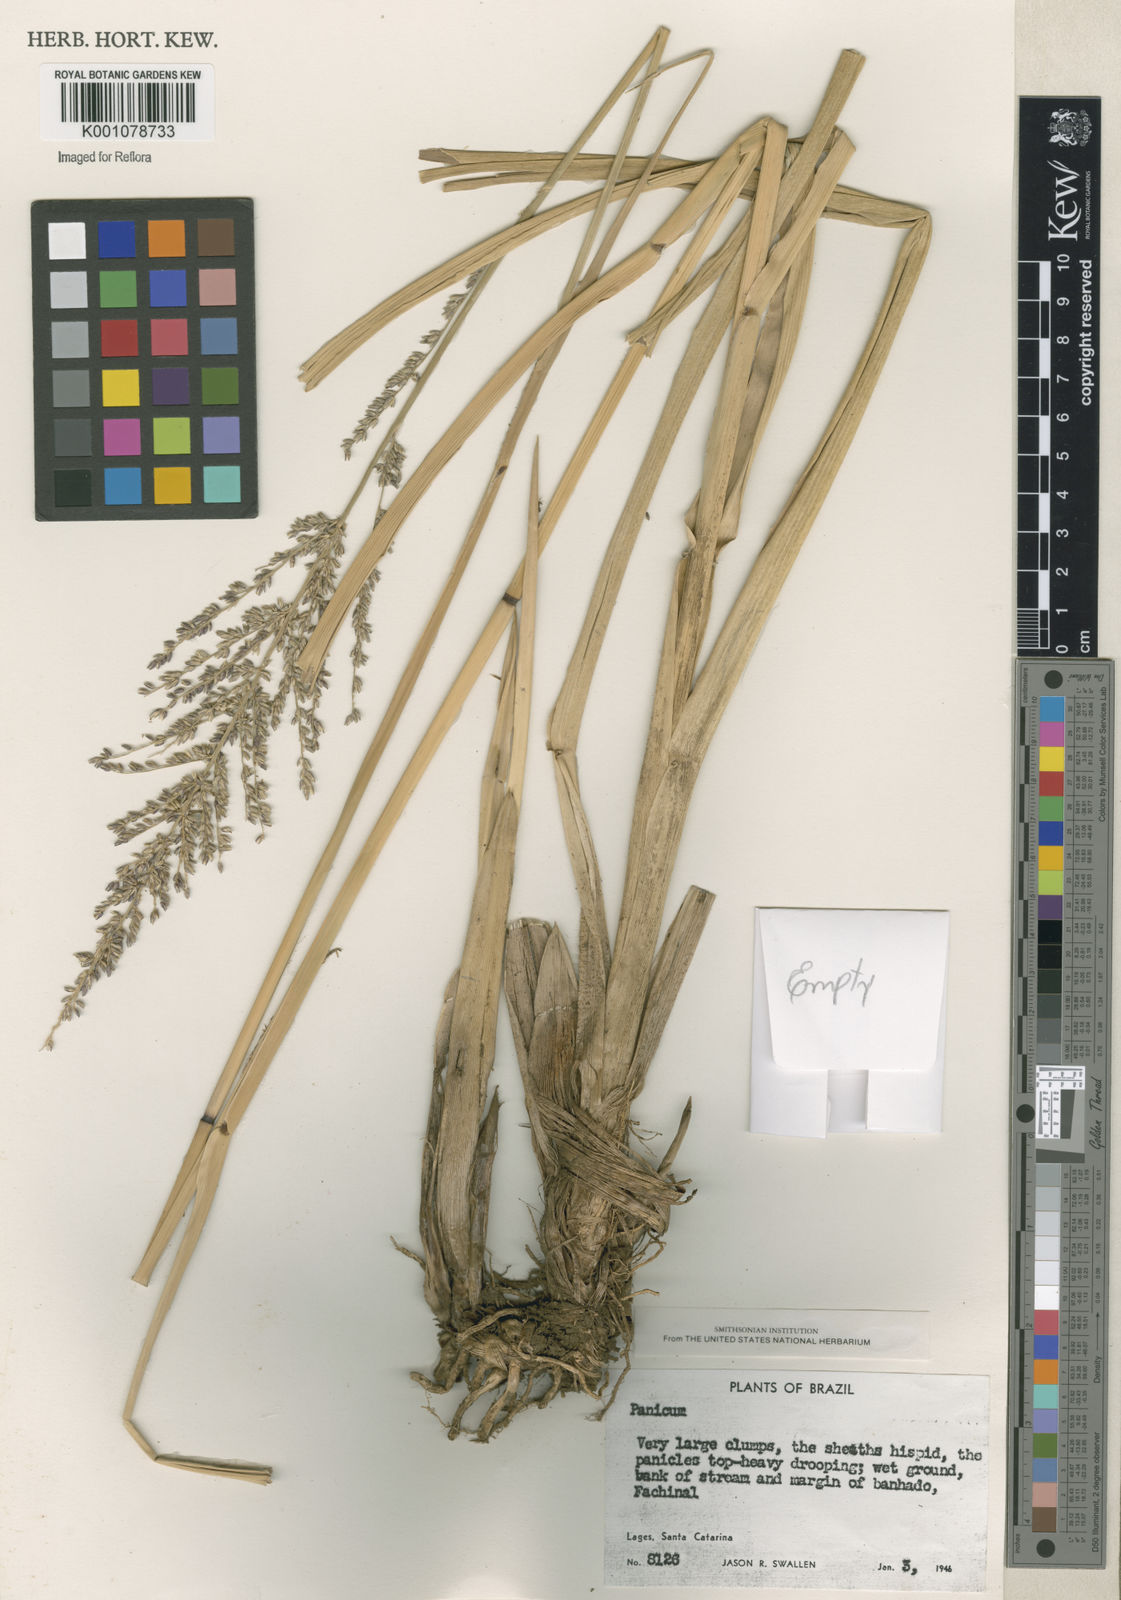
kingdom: Plantae
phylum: Tracheophyta
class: Liliopsida
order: Poales
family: Poaceae
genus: Panicum
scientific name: Panicum
